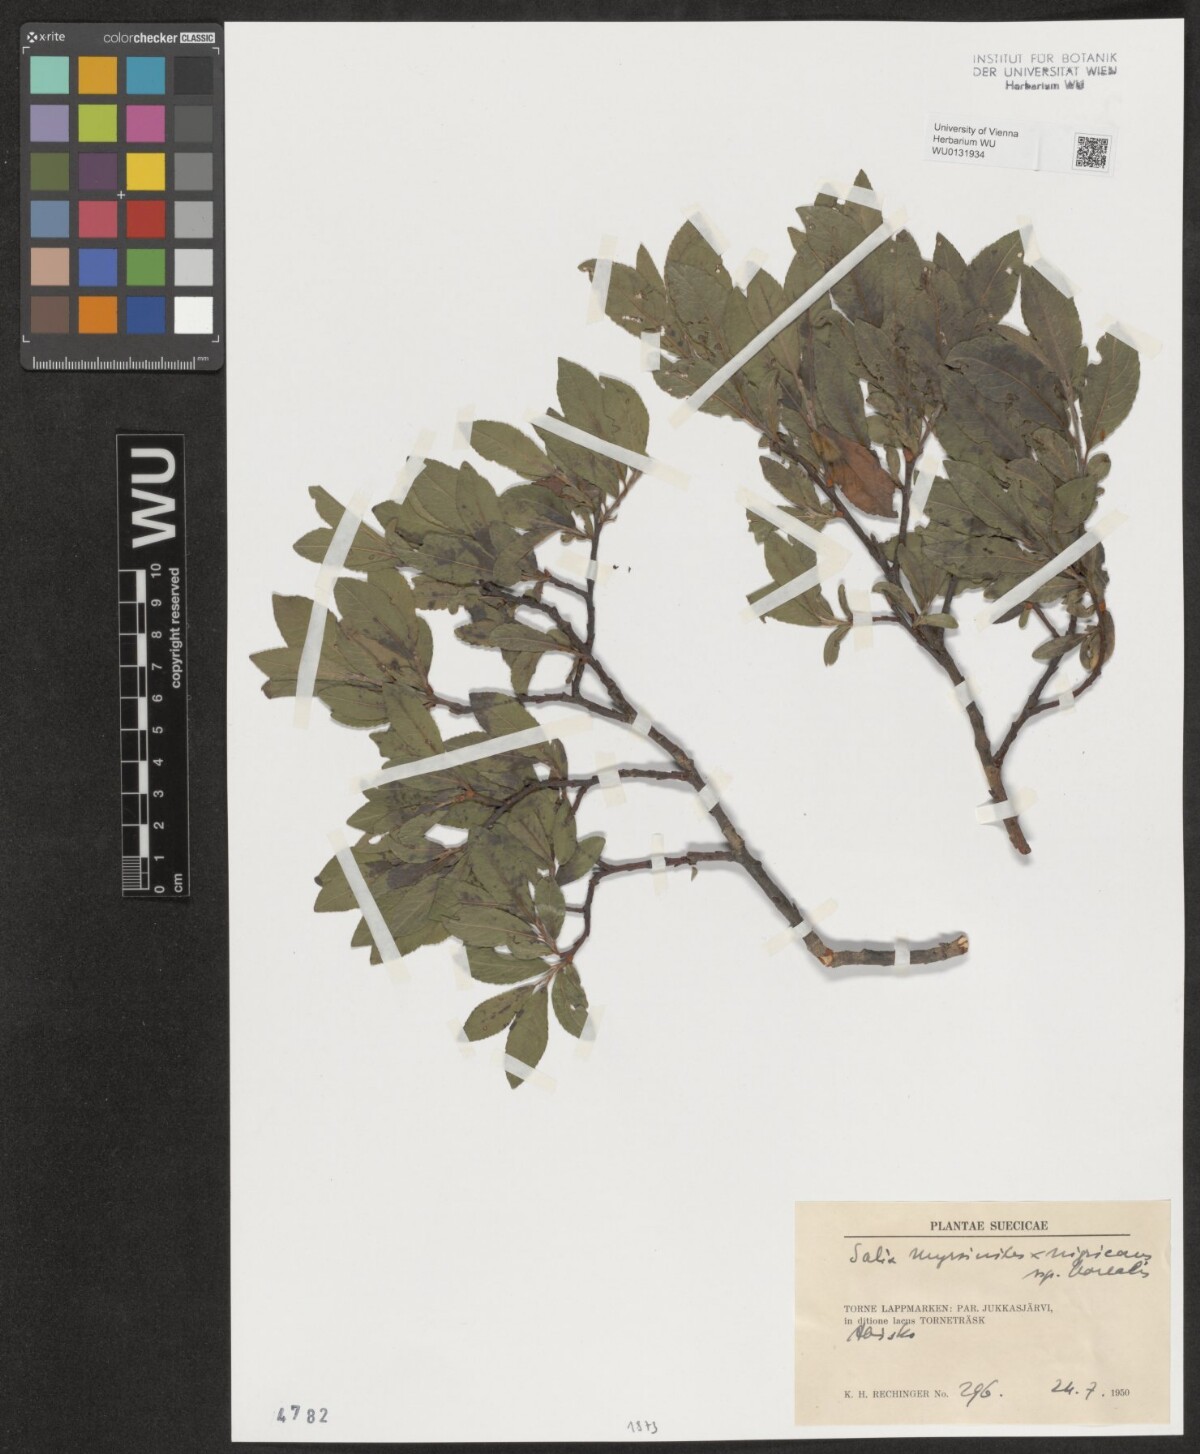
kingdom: Plantae
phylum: Tracheophyta
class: Magnoliopsida
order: Malpighiales
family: Salicaceae
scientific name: Salicaceae
